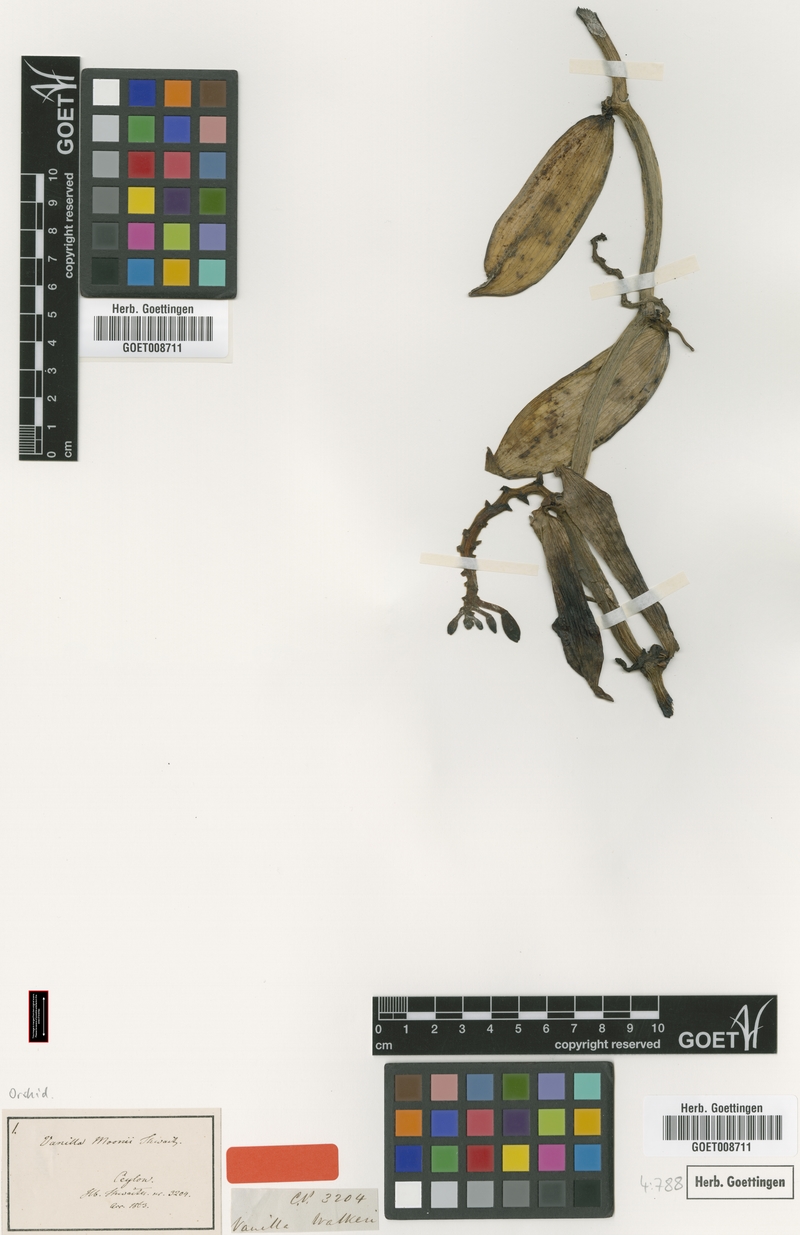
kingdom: Plantae
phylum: Tracheophyta
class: Liliopsida
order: Asparagales
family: Orchidaceae
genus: Vanilla
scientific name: Vanilla moonii
